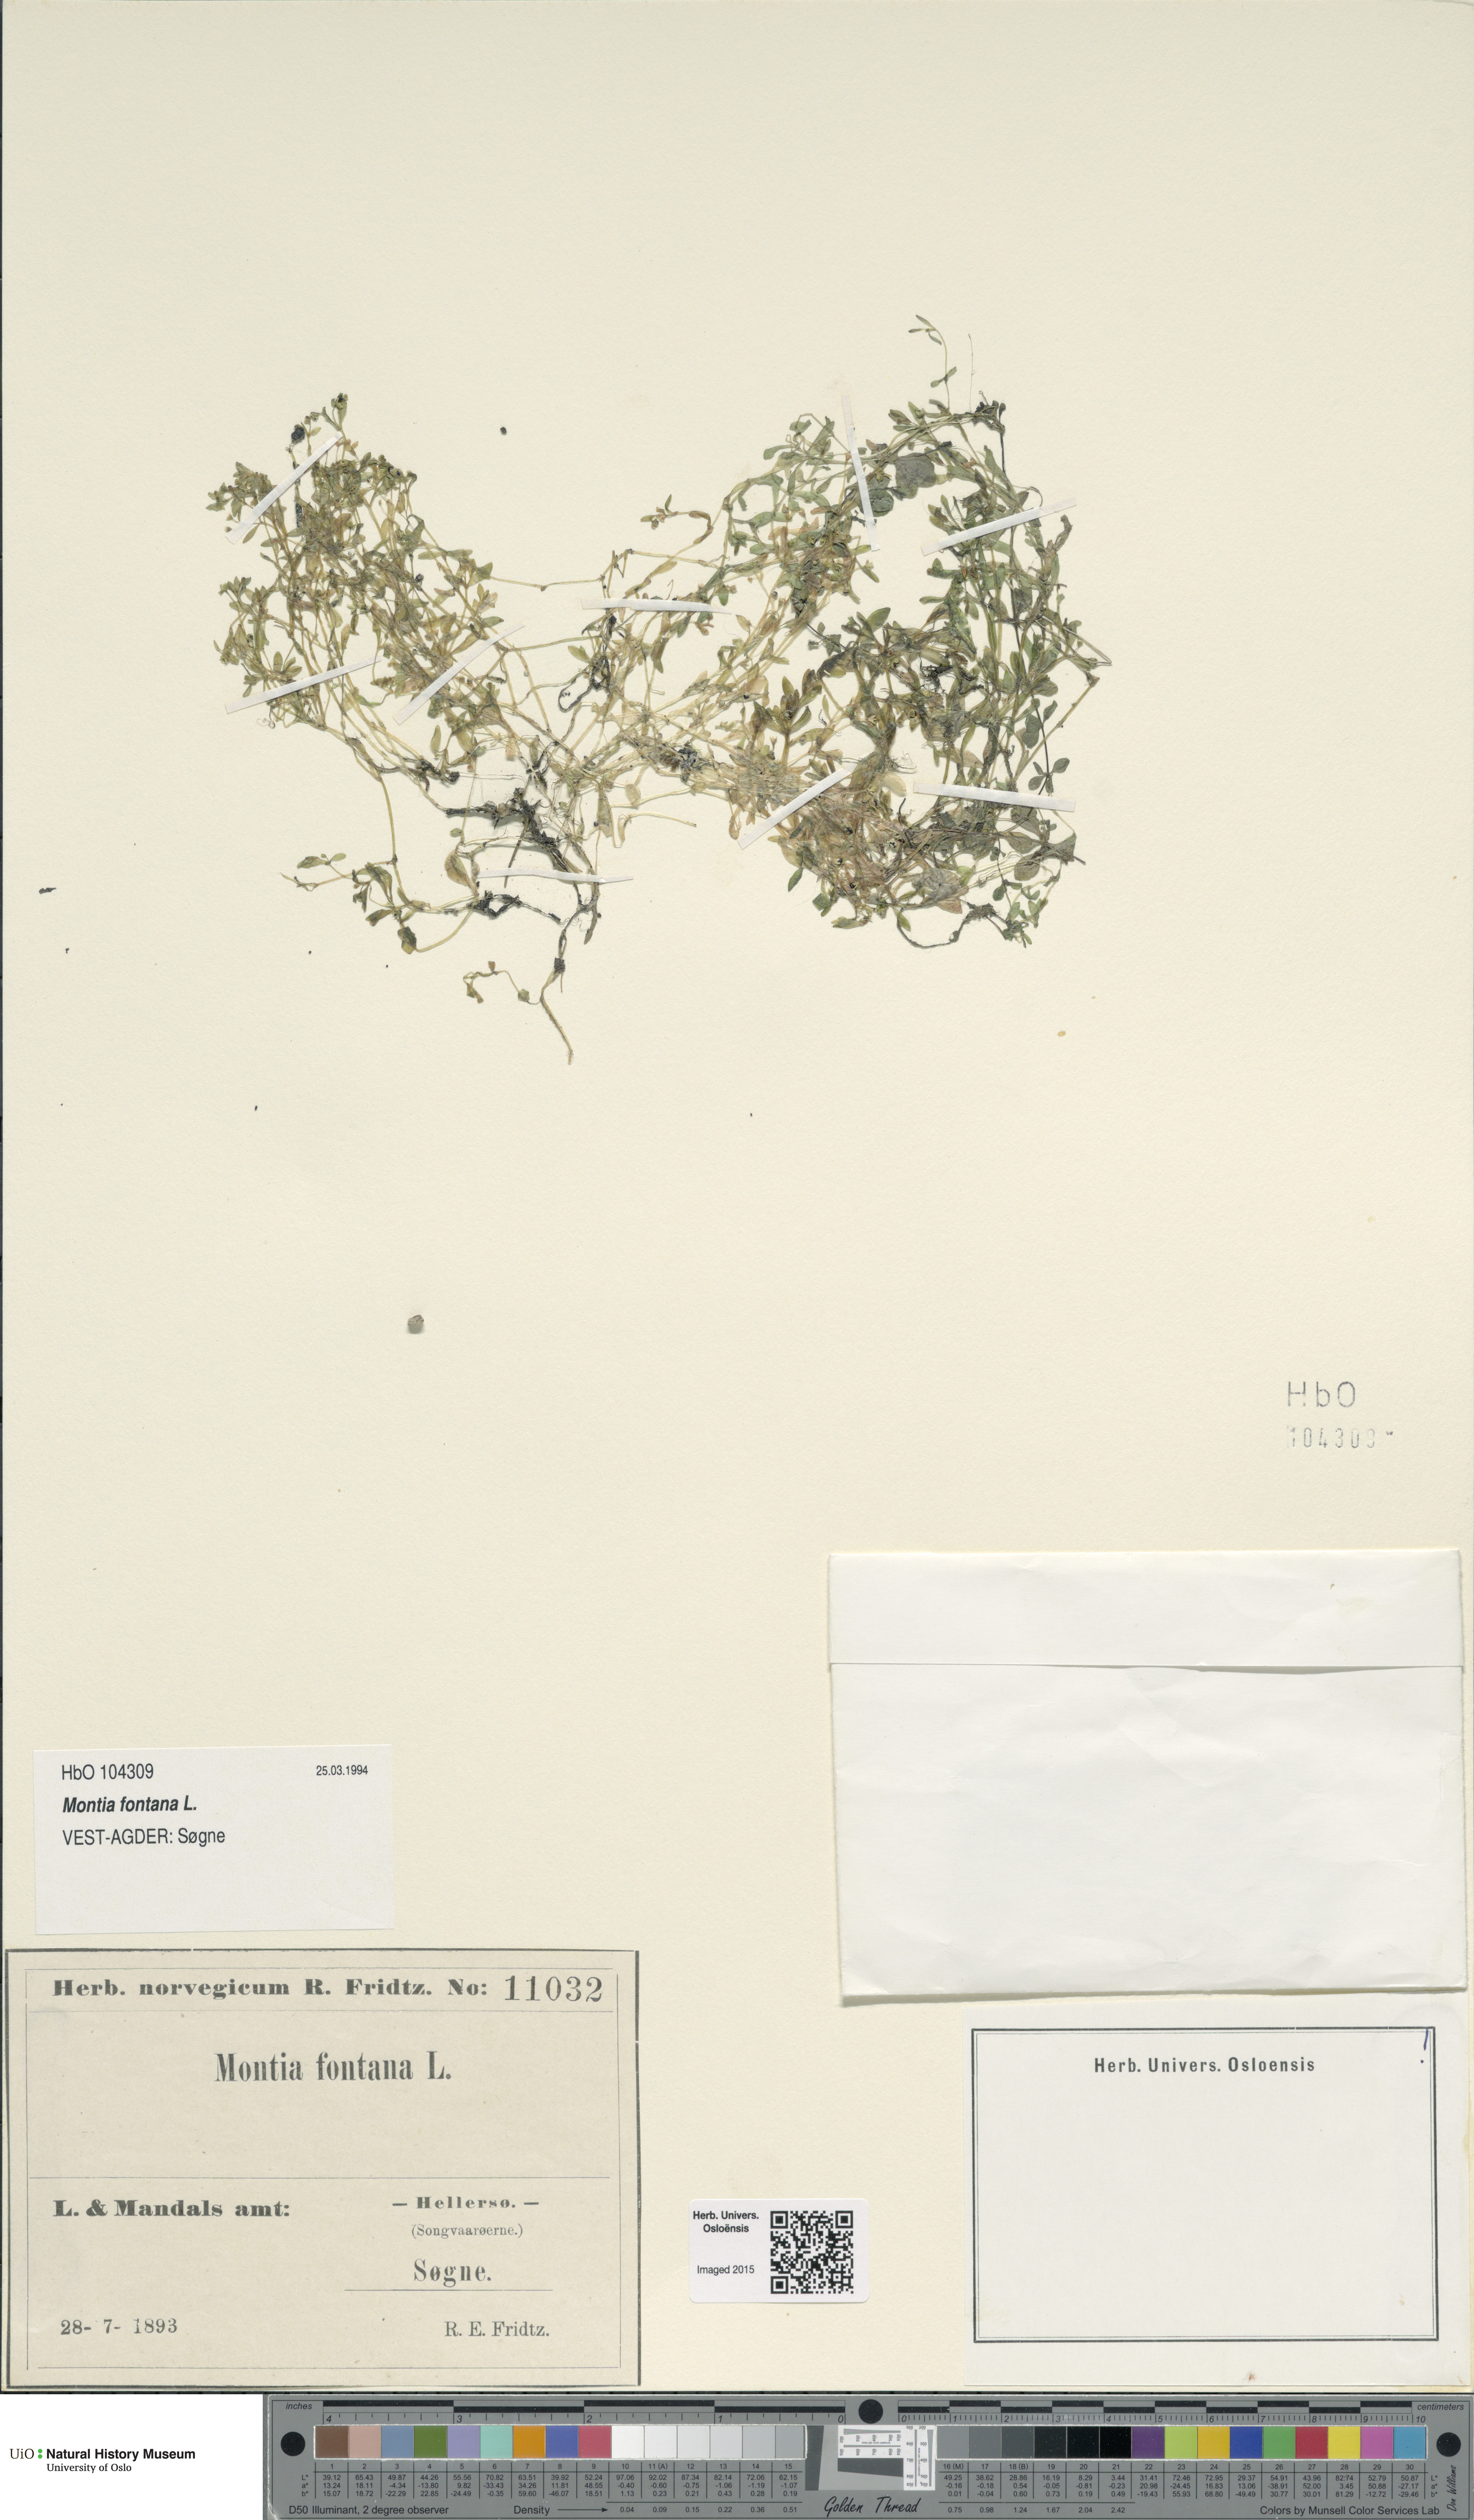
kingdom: Plantae
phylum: Tracheophyta
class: Magnoliopsida
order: Caryophyllales
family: Montiaceae
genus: Montia
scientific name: Montia fontana
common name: Blinks
